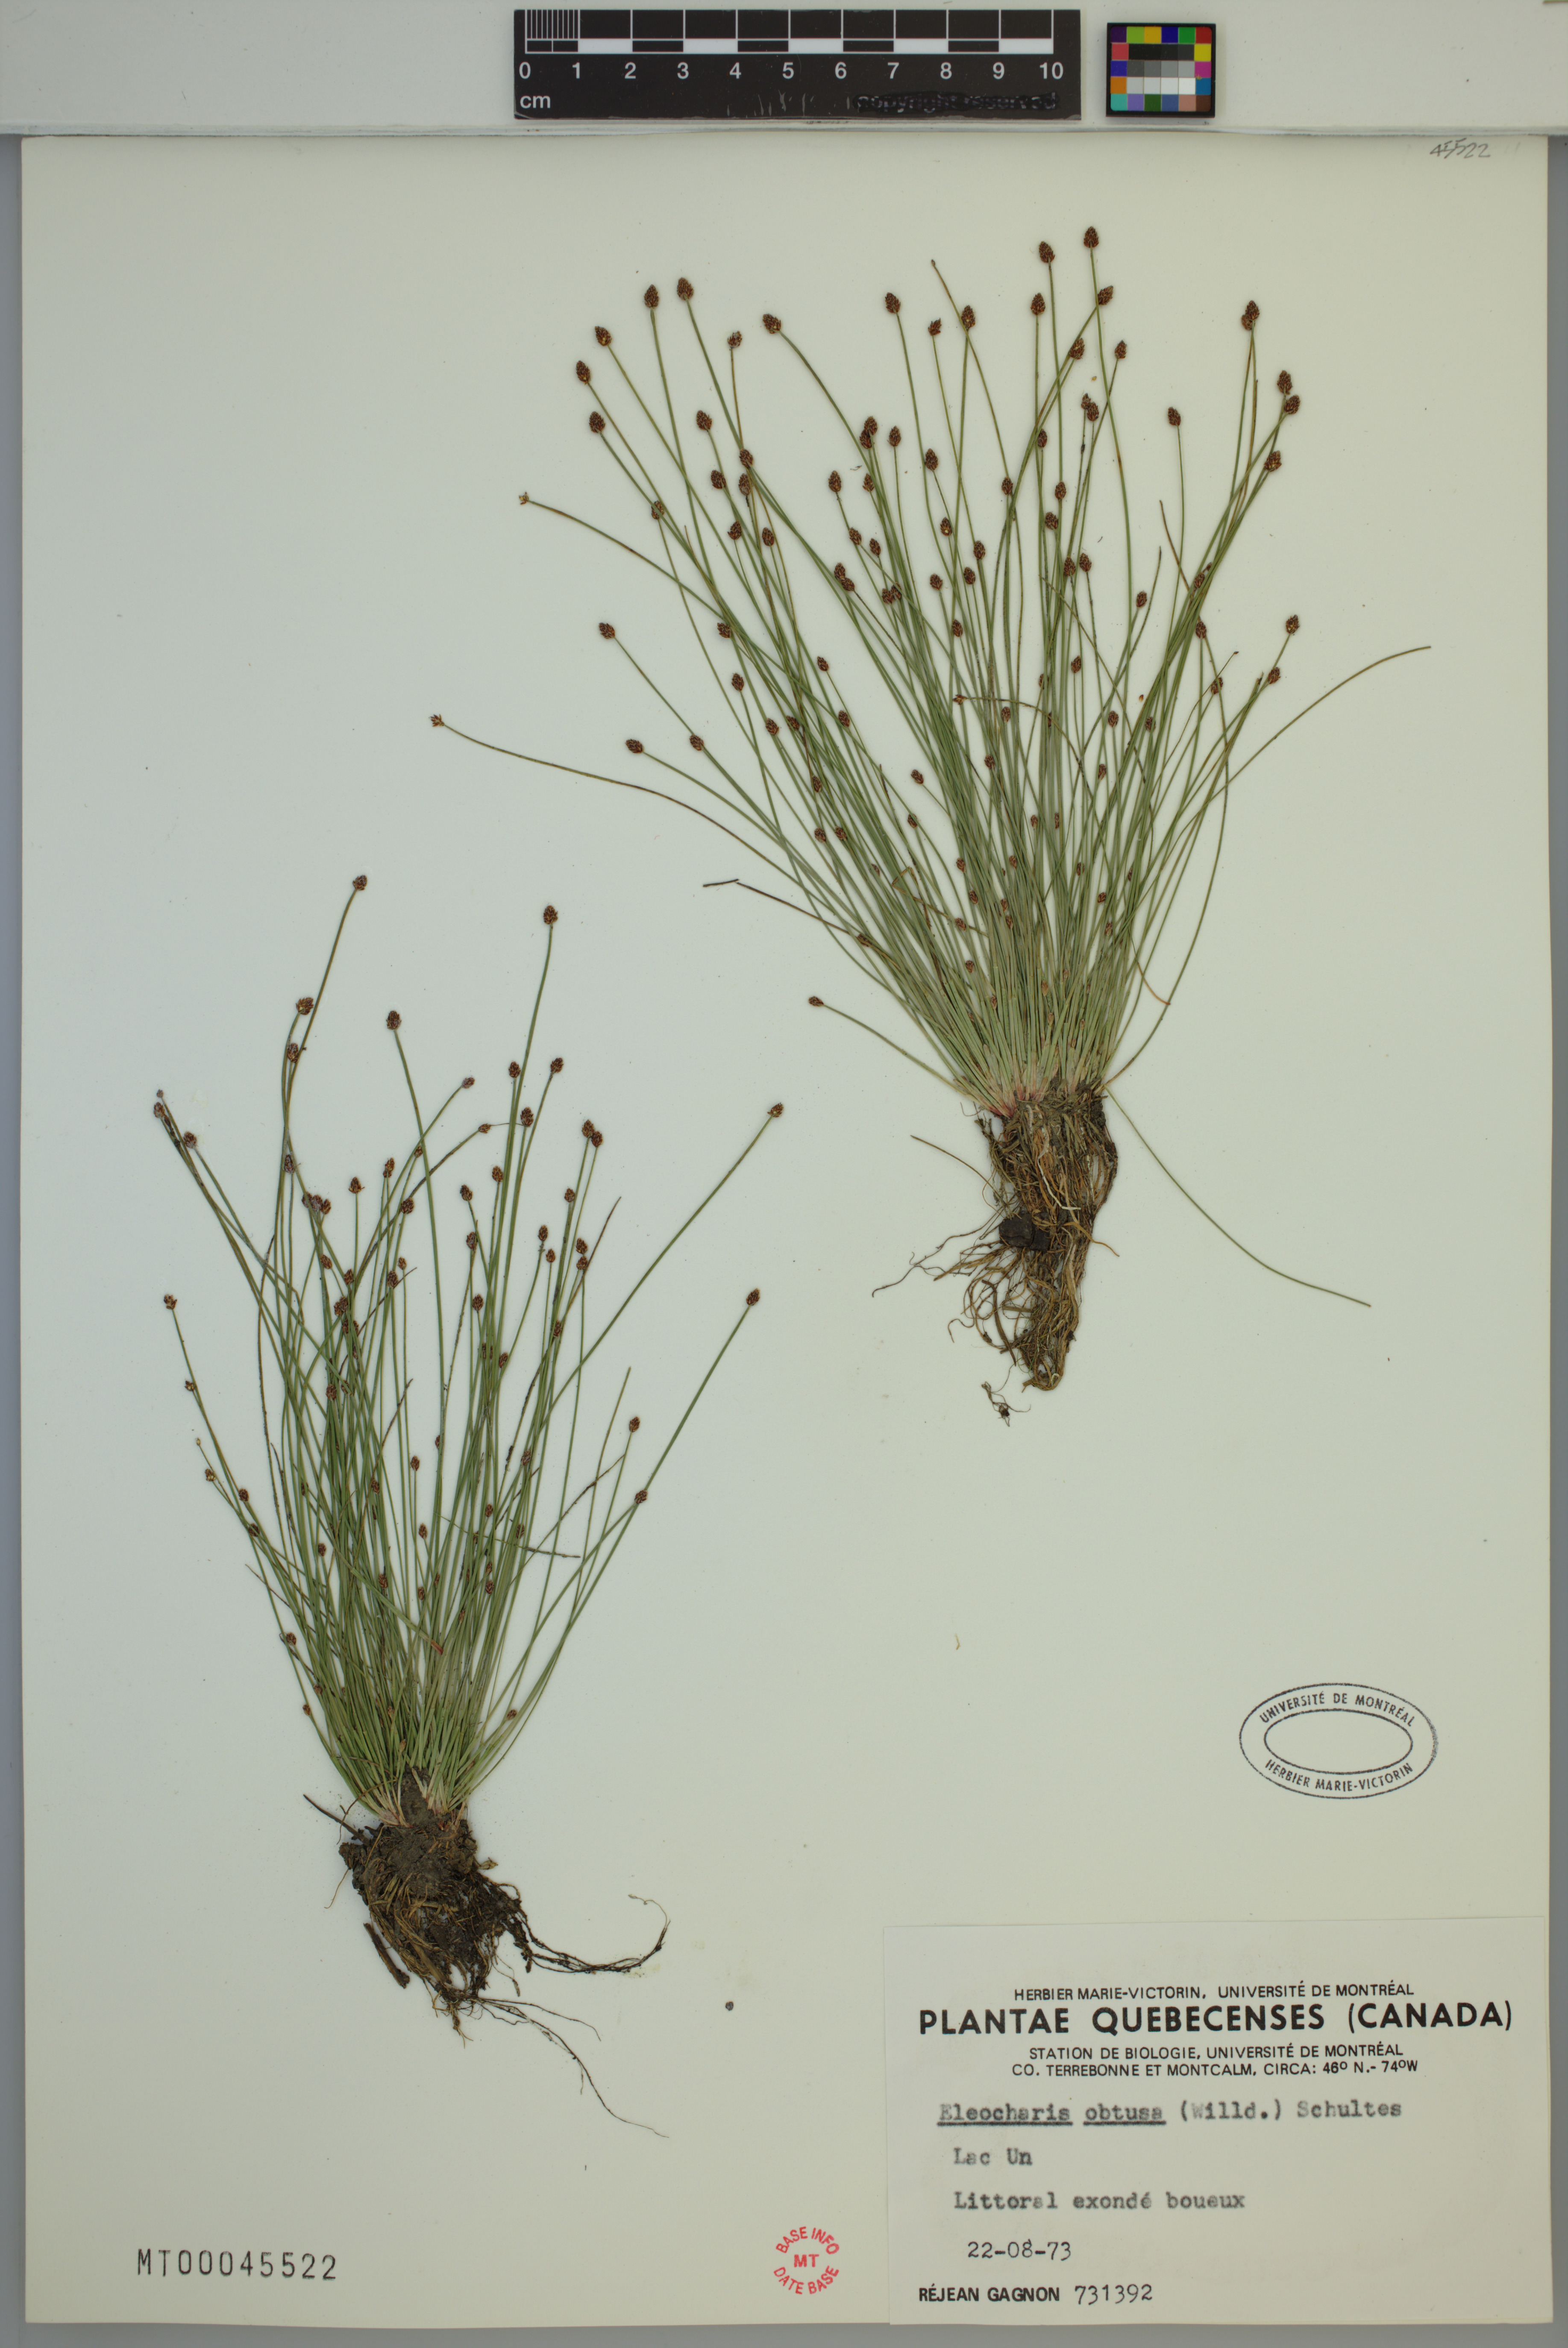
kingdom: Plantae
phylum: Tracheophyta
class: Liliopsida
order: Poales
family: Cyperaceae
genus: Eleocharis
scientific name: Eleocharis obtusa
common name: Blunt spikerush
